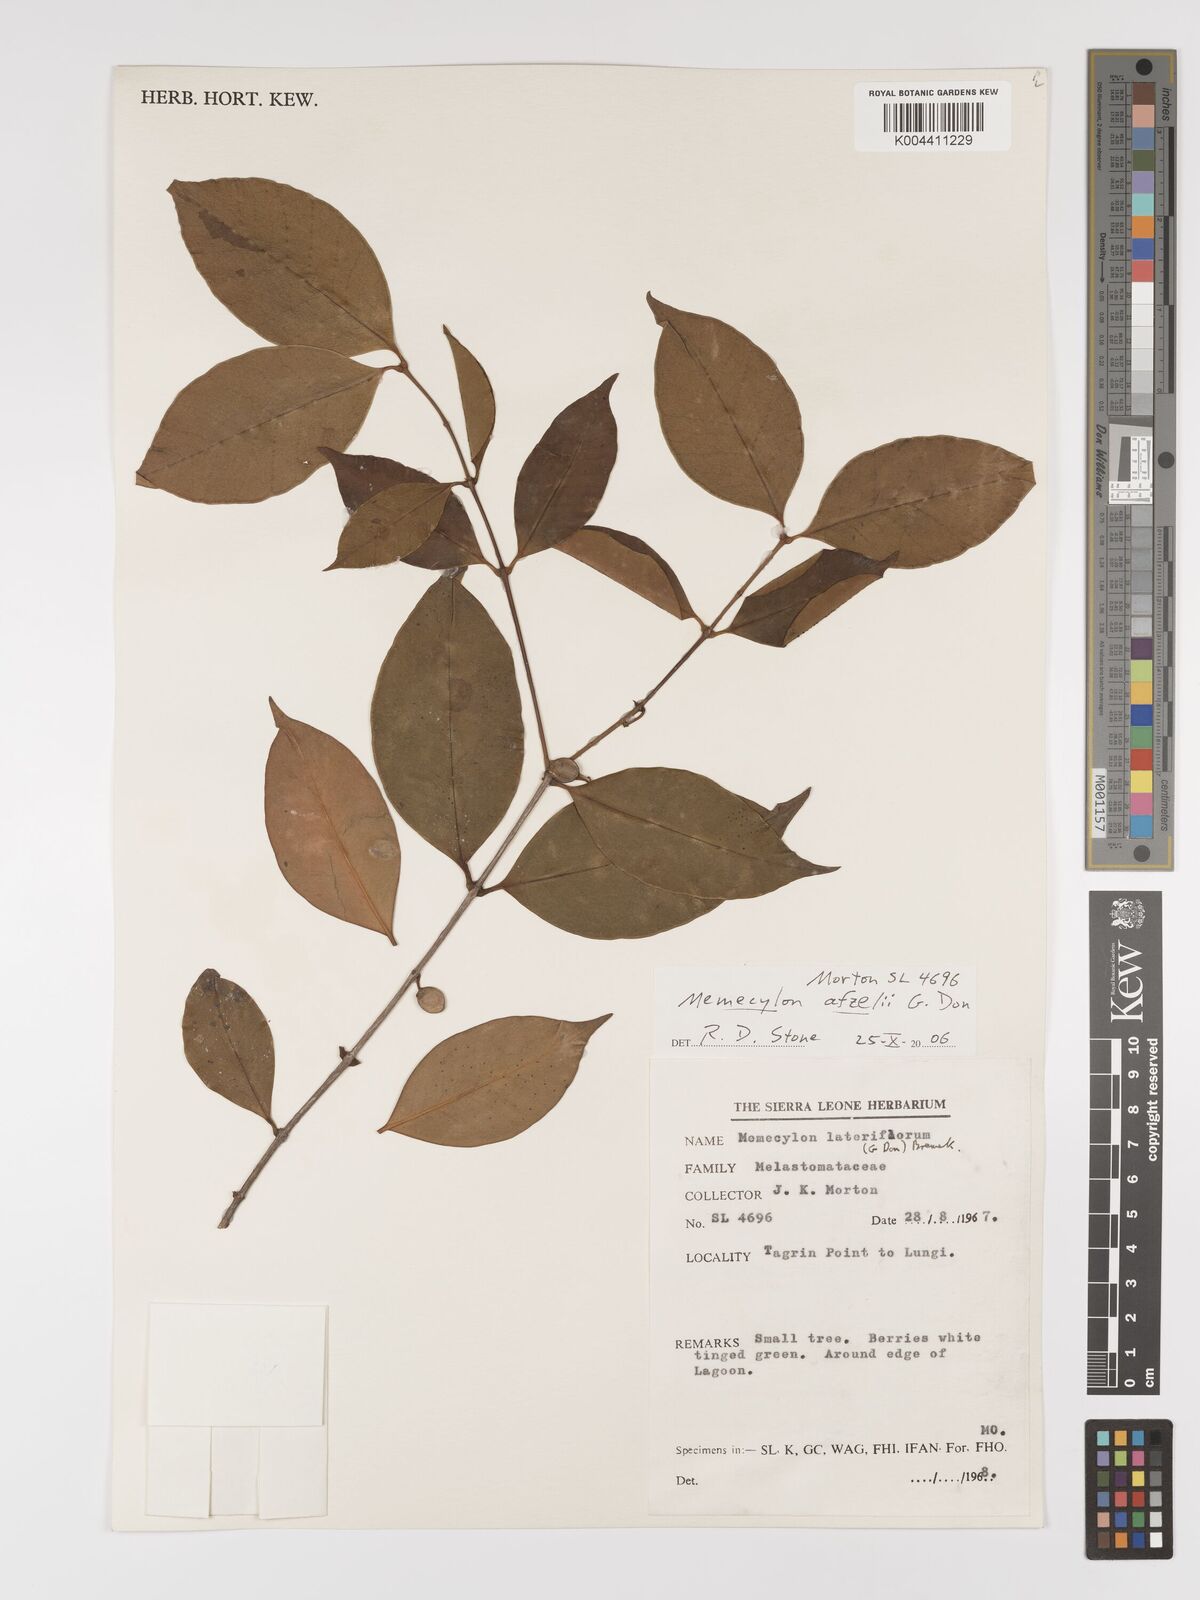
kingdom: Plantae
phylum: Tracheophyta
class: Magnoliopsida
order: Myrtales
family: Melastomataceae
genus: Memecylon
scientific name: Memecylon afzelii
